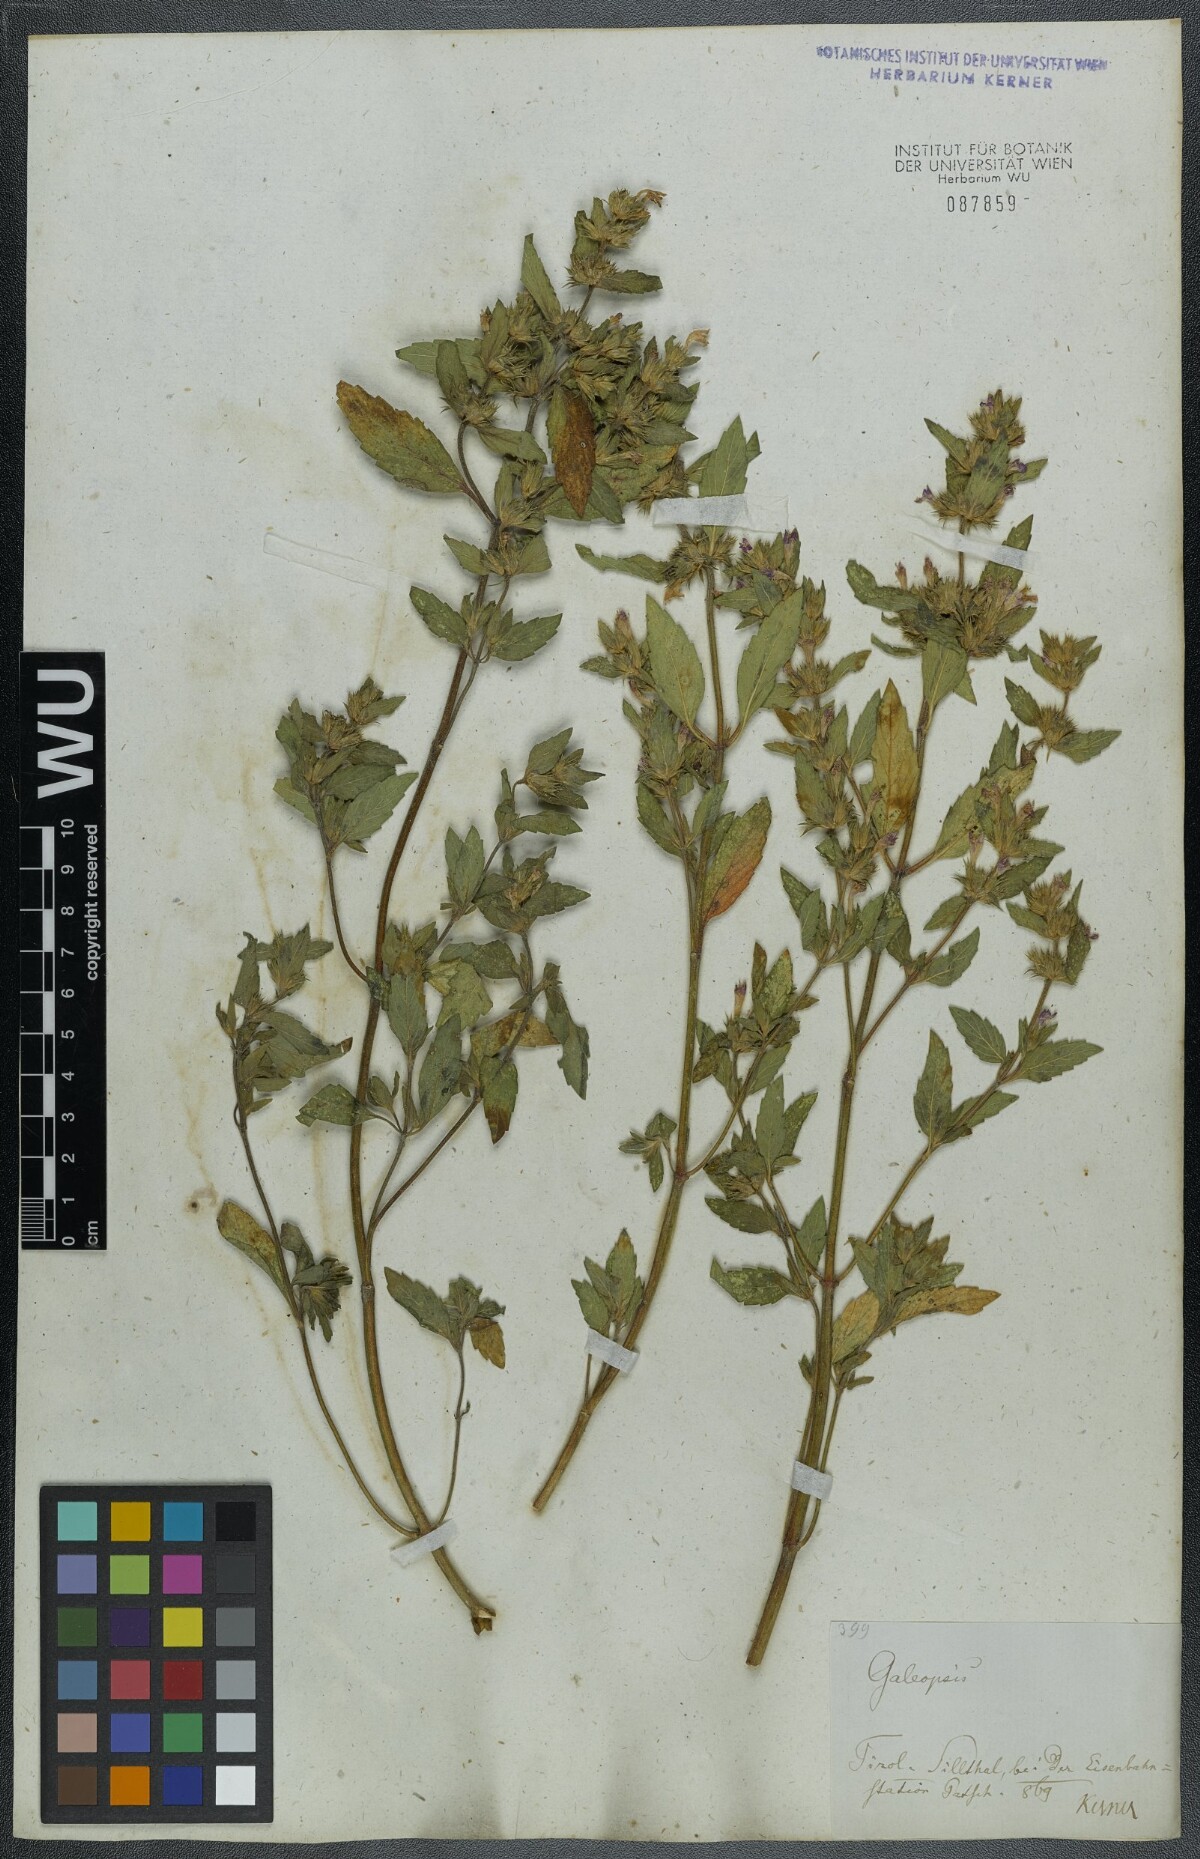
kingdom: Plantae
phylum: Tracheophyta
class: Magnoliopsida
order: Lamiales
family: Lamiaceae
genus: Galeopsis
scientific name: Galeopsis ladanum
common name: Broad-leaved hemp-nettle
